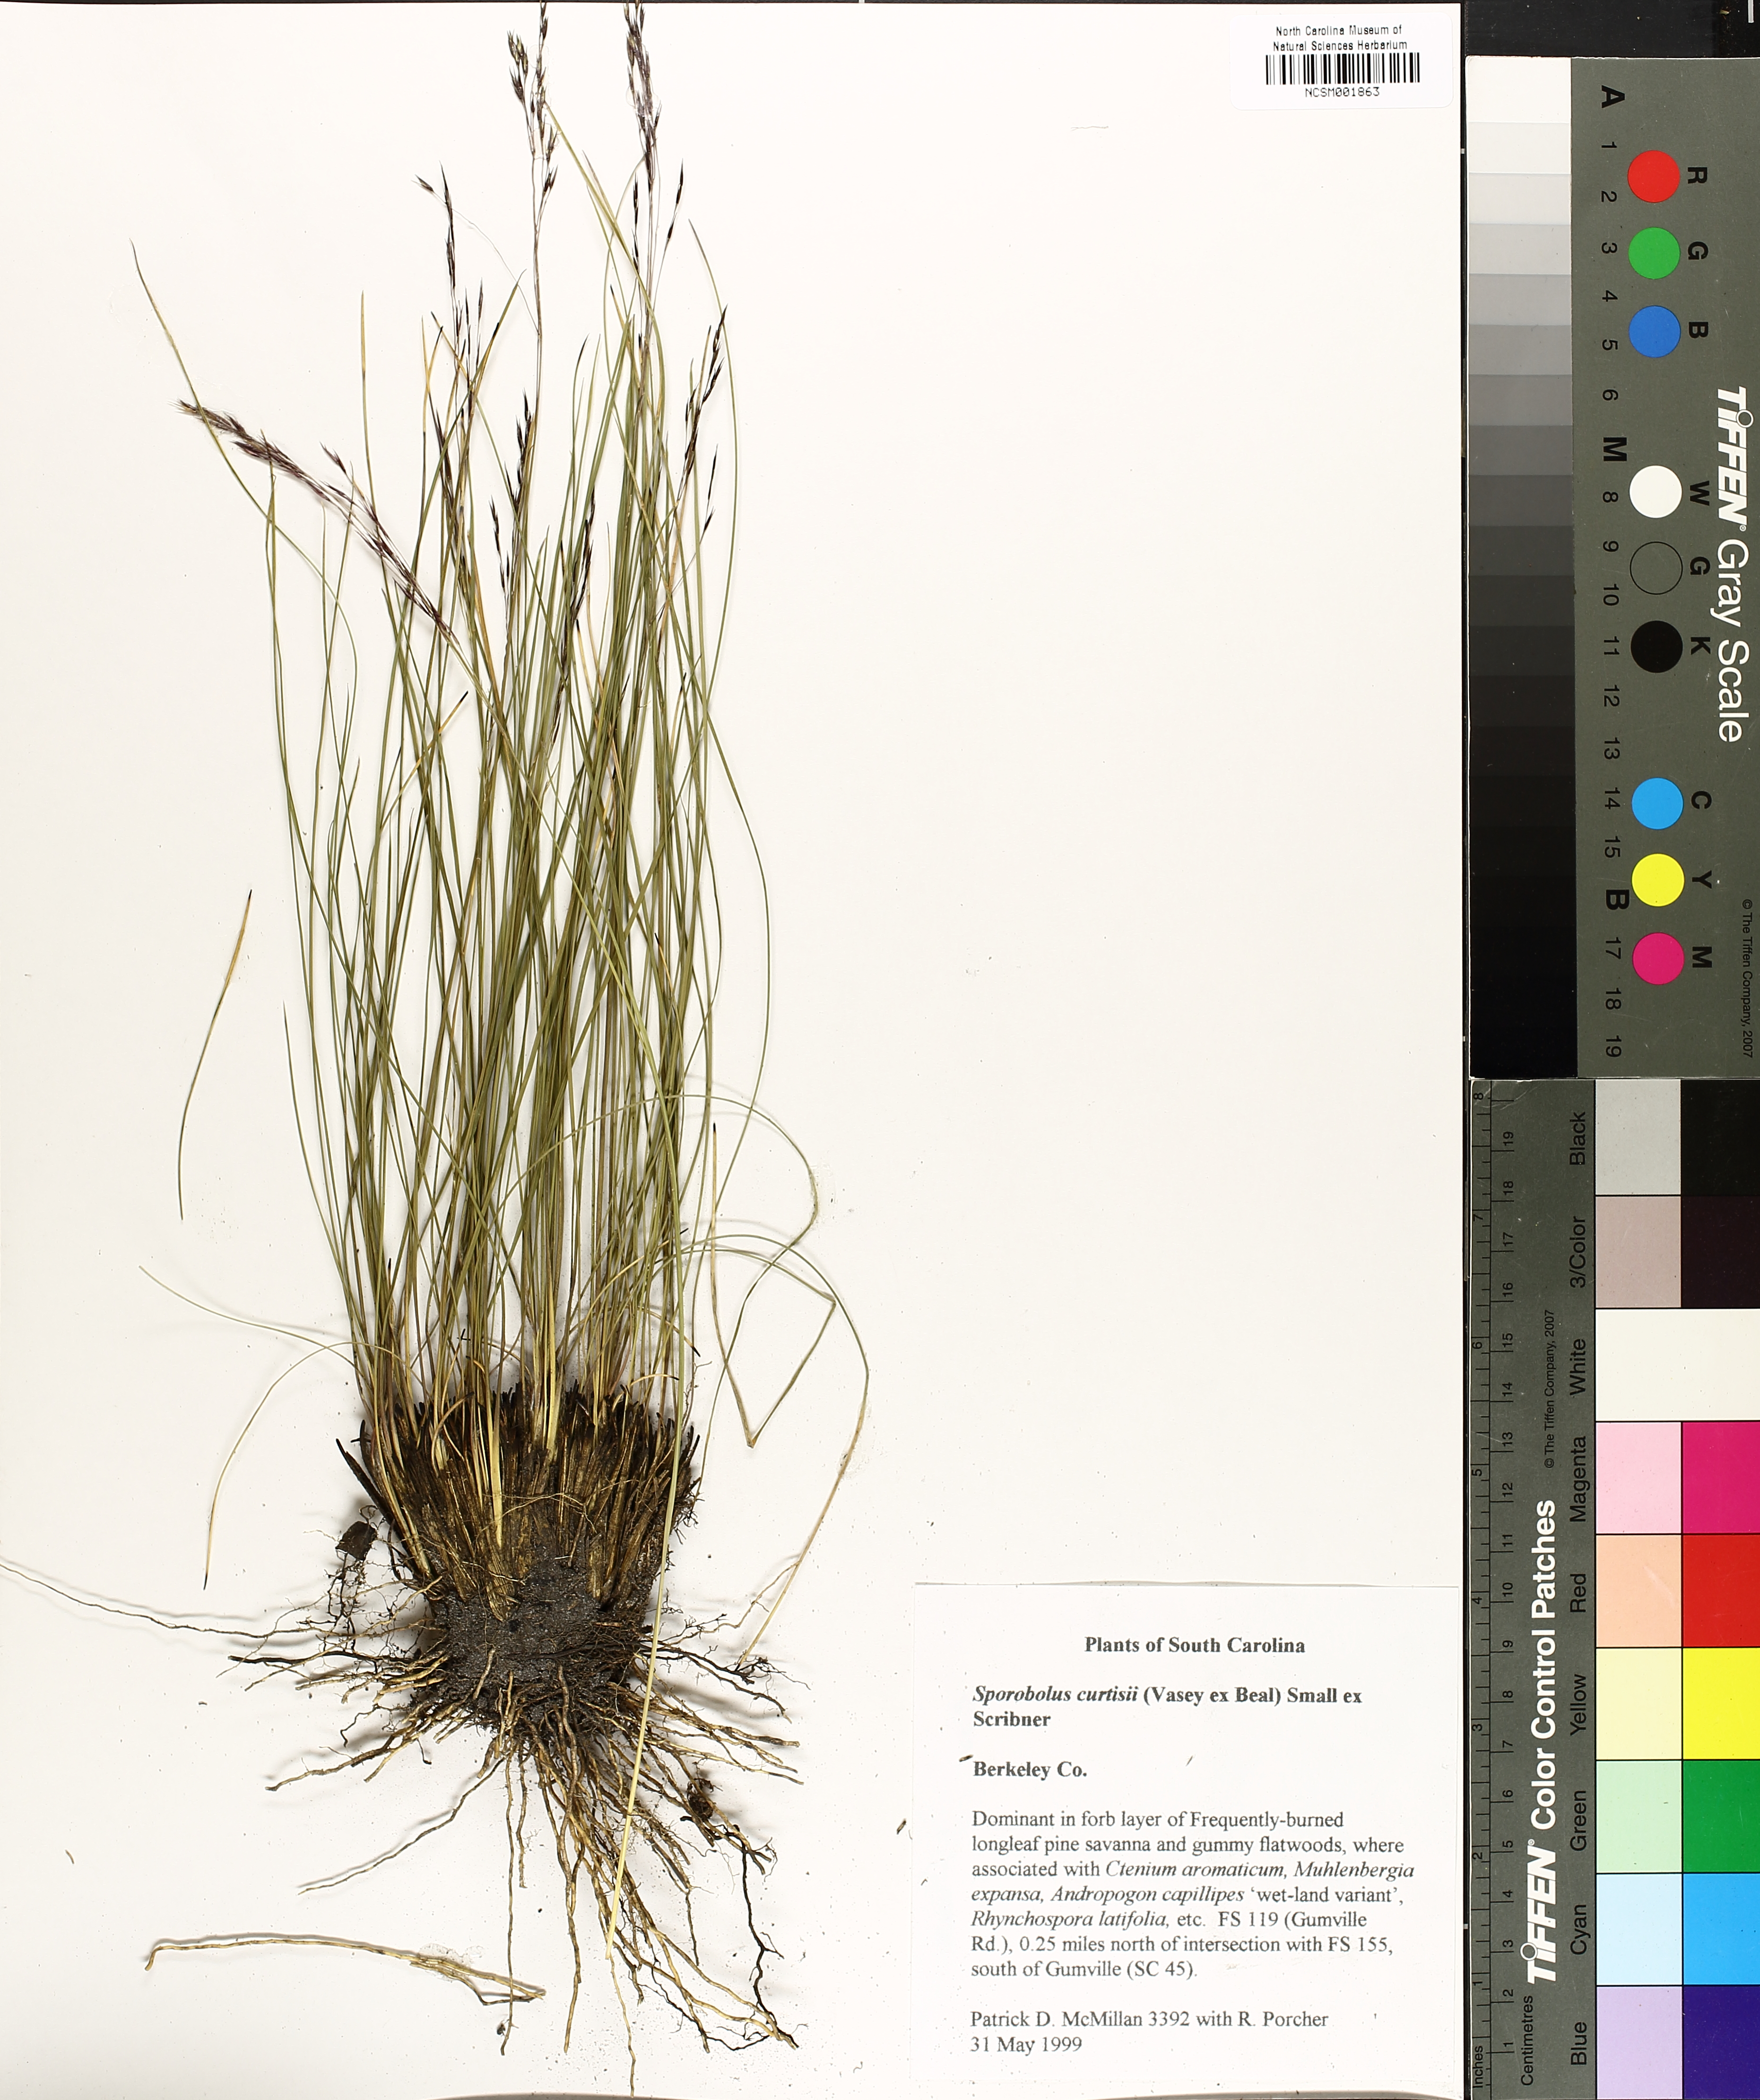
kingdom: Plantae
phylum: Tracheophyta
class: Liliopsida
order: Poales
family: Poaceae
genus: Sporobolus
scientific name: Sporobolus curtissii
